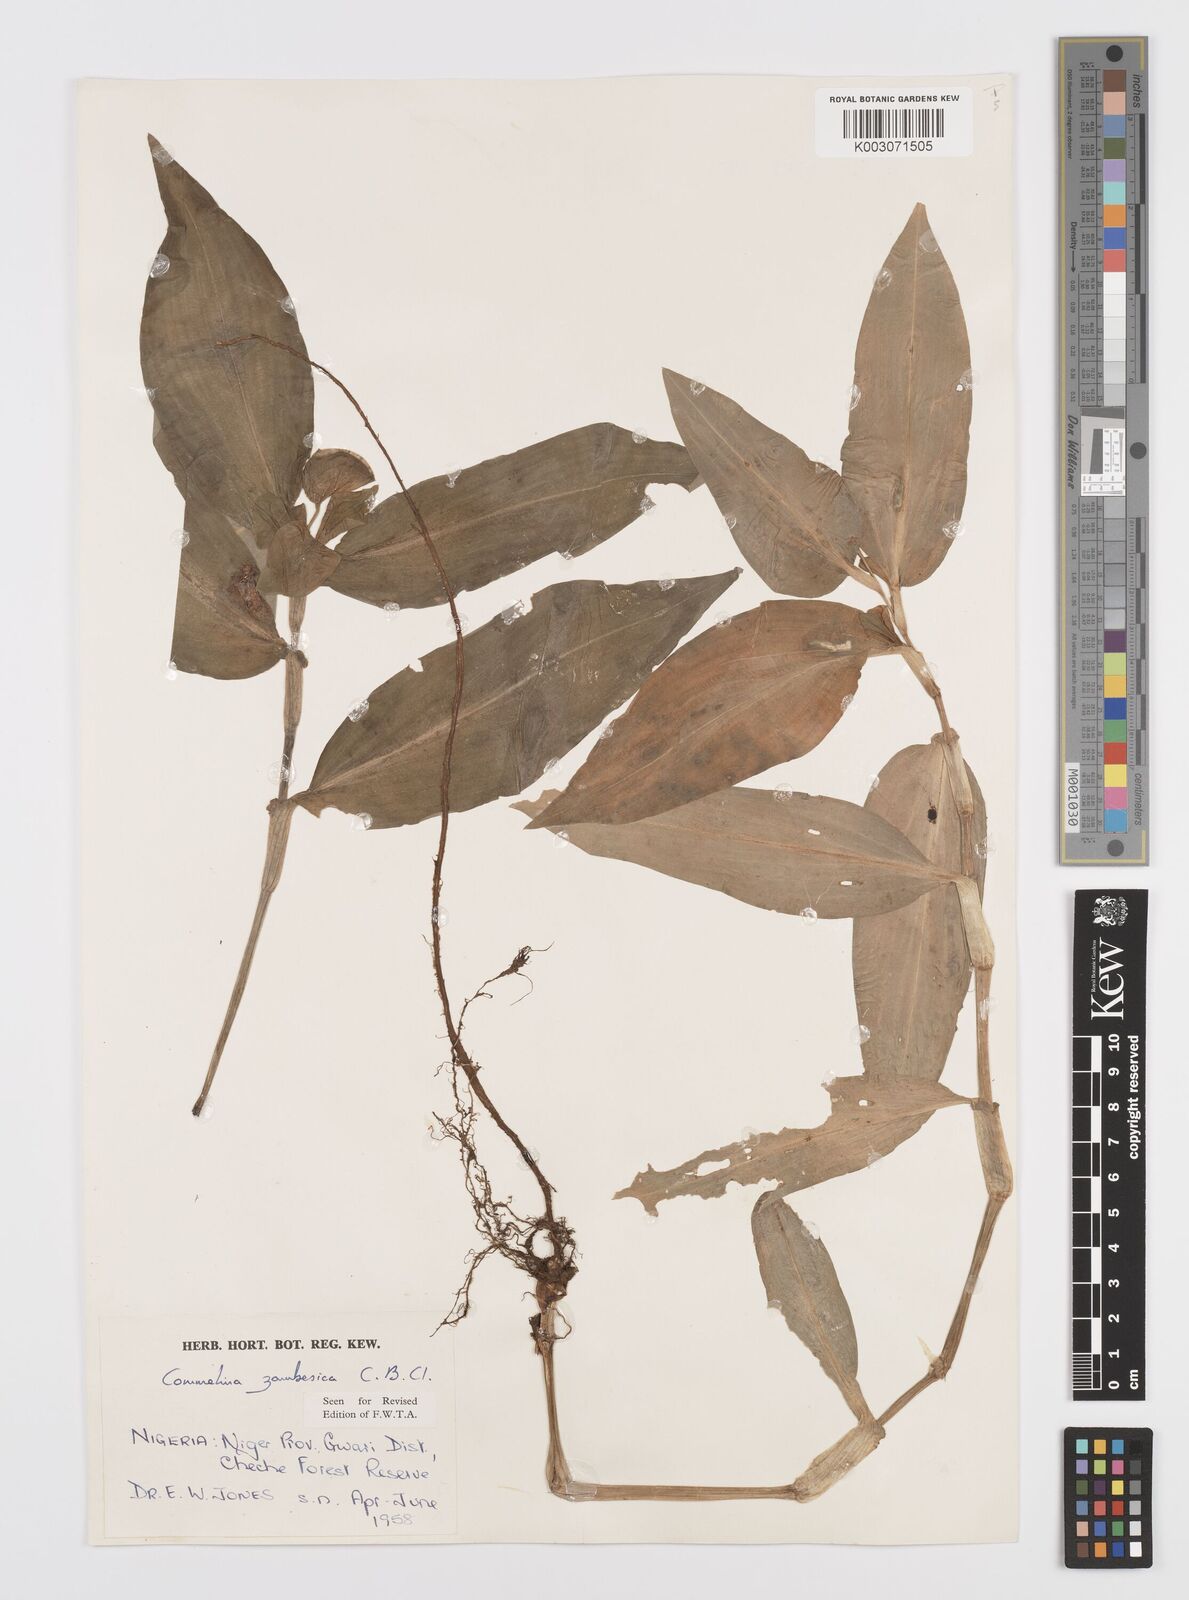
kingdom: Plantae
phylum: Tracheophyta
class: Liliopsida
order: Commelinales
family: Commelinaceae
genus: Commelina
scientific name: Commelina zambesica
